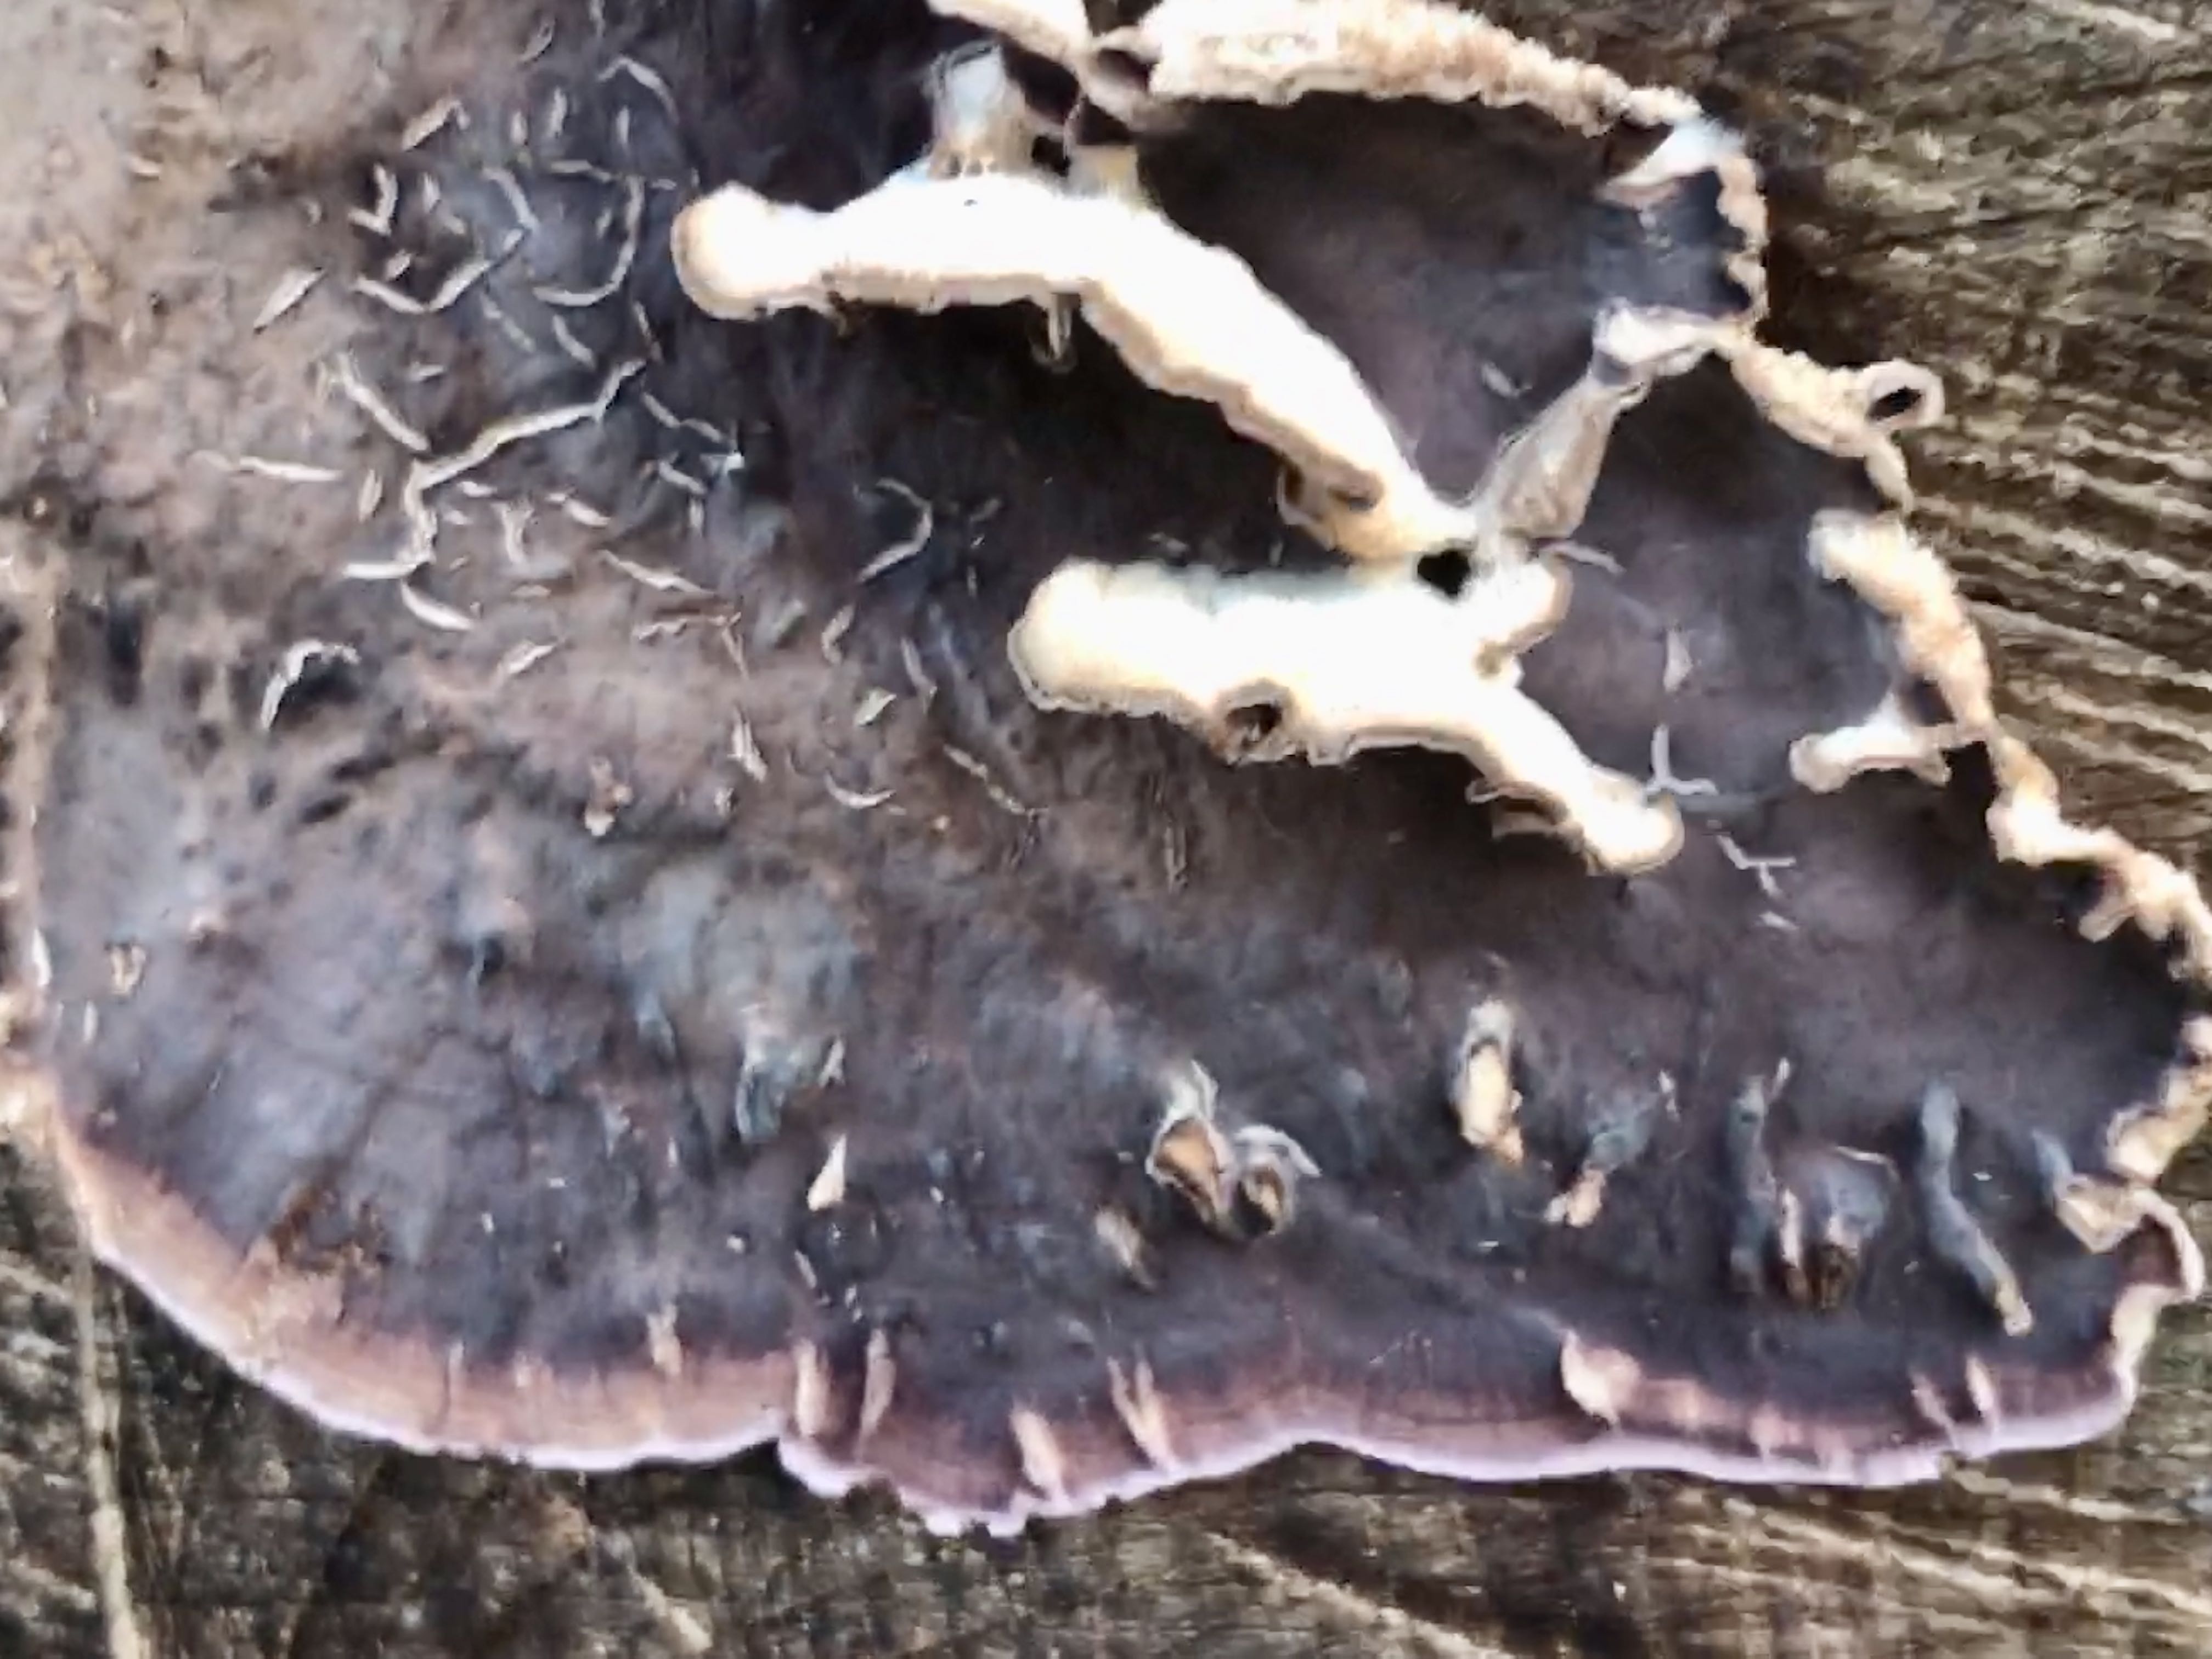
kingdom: Fungi
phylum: Basidiomycota
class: Agaricomycetes
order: Agaricales
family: Cyphellaceae
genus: Chondrostereum
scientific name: Chondrostereum purpureum
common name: purpurlædersvamp
